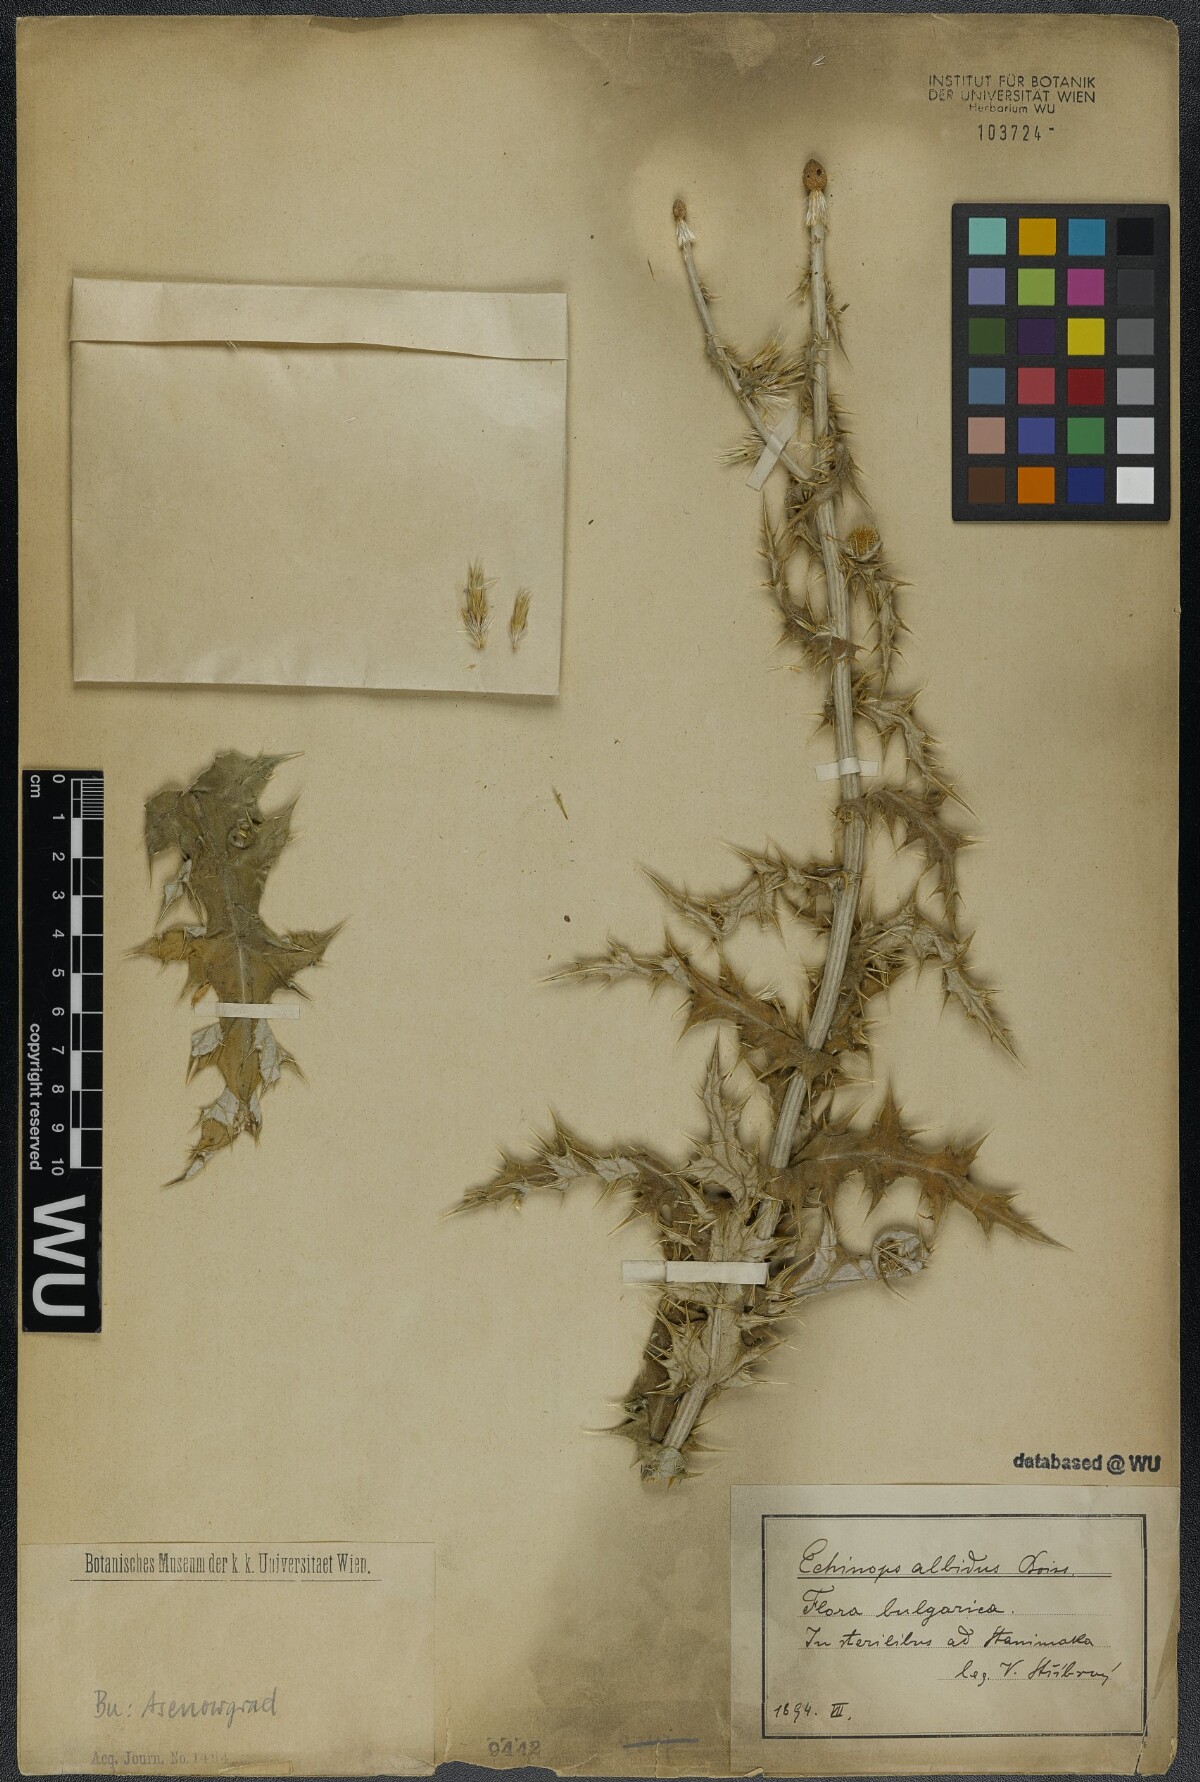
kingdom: Plantae
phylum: Tracheophyta
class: Magnoliopsida
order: Asterales
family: Asteraceae
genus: Echinops
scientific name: Echinops sphaerocephalus
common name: Glandular globe-thistle
